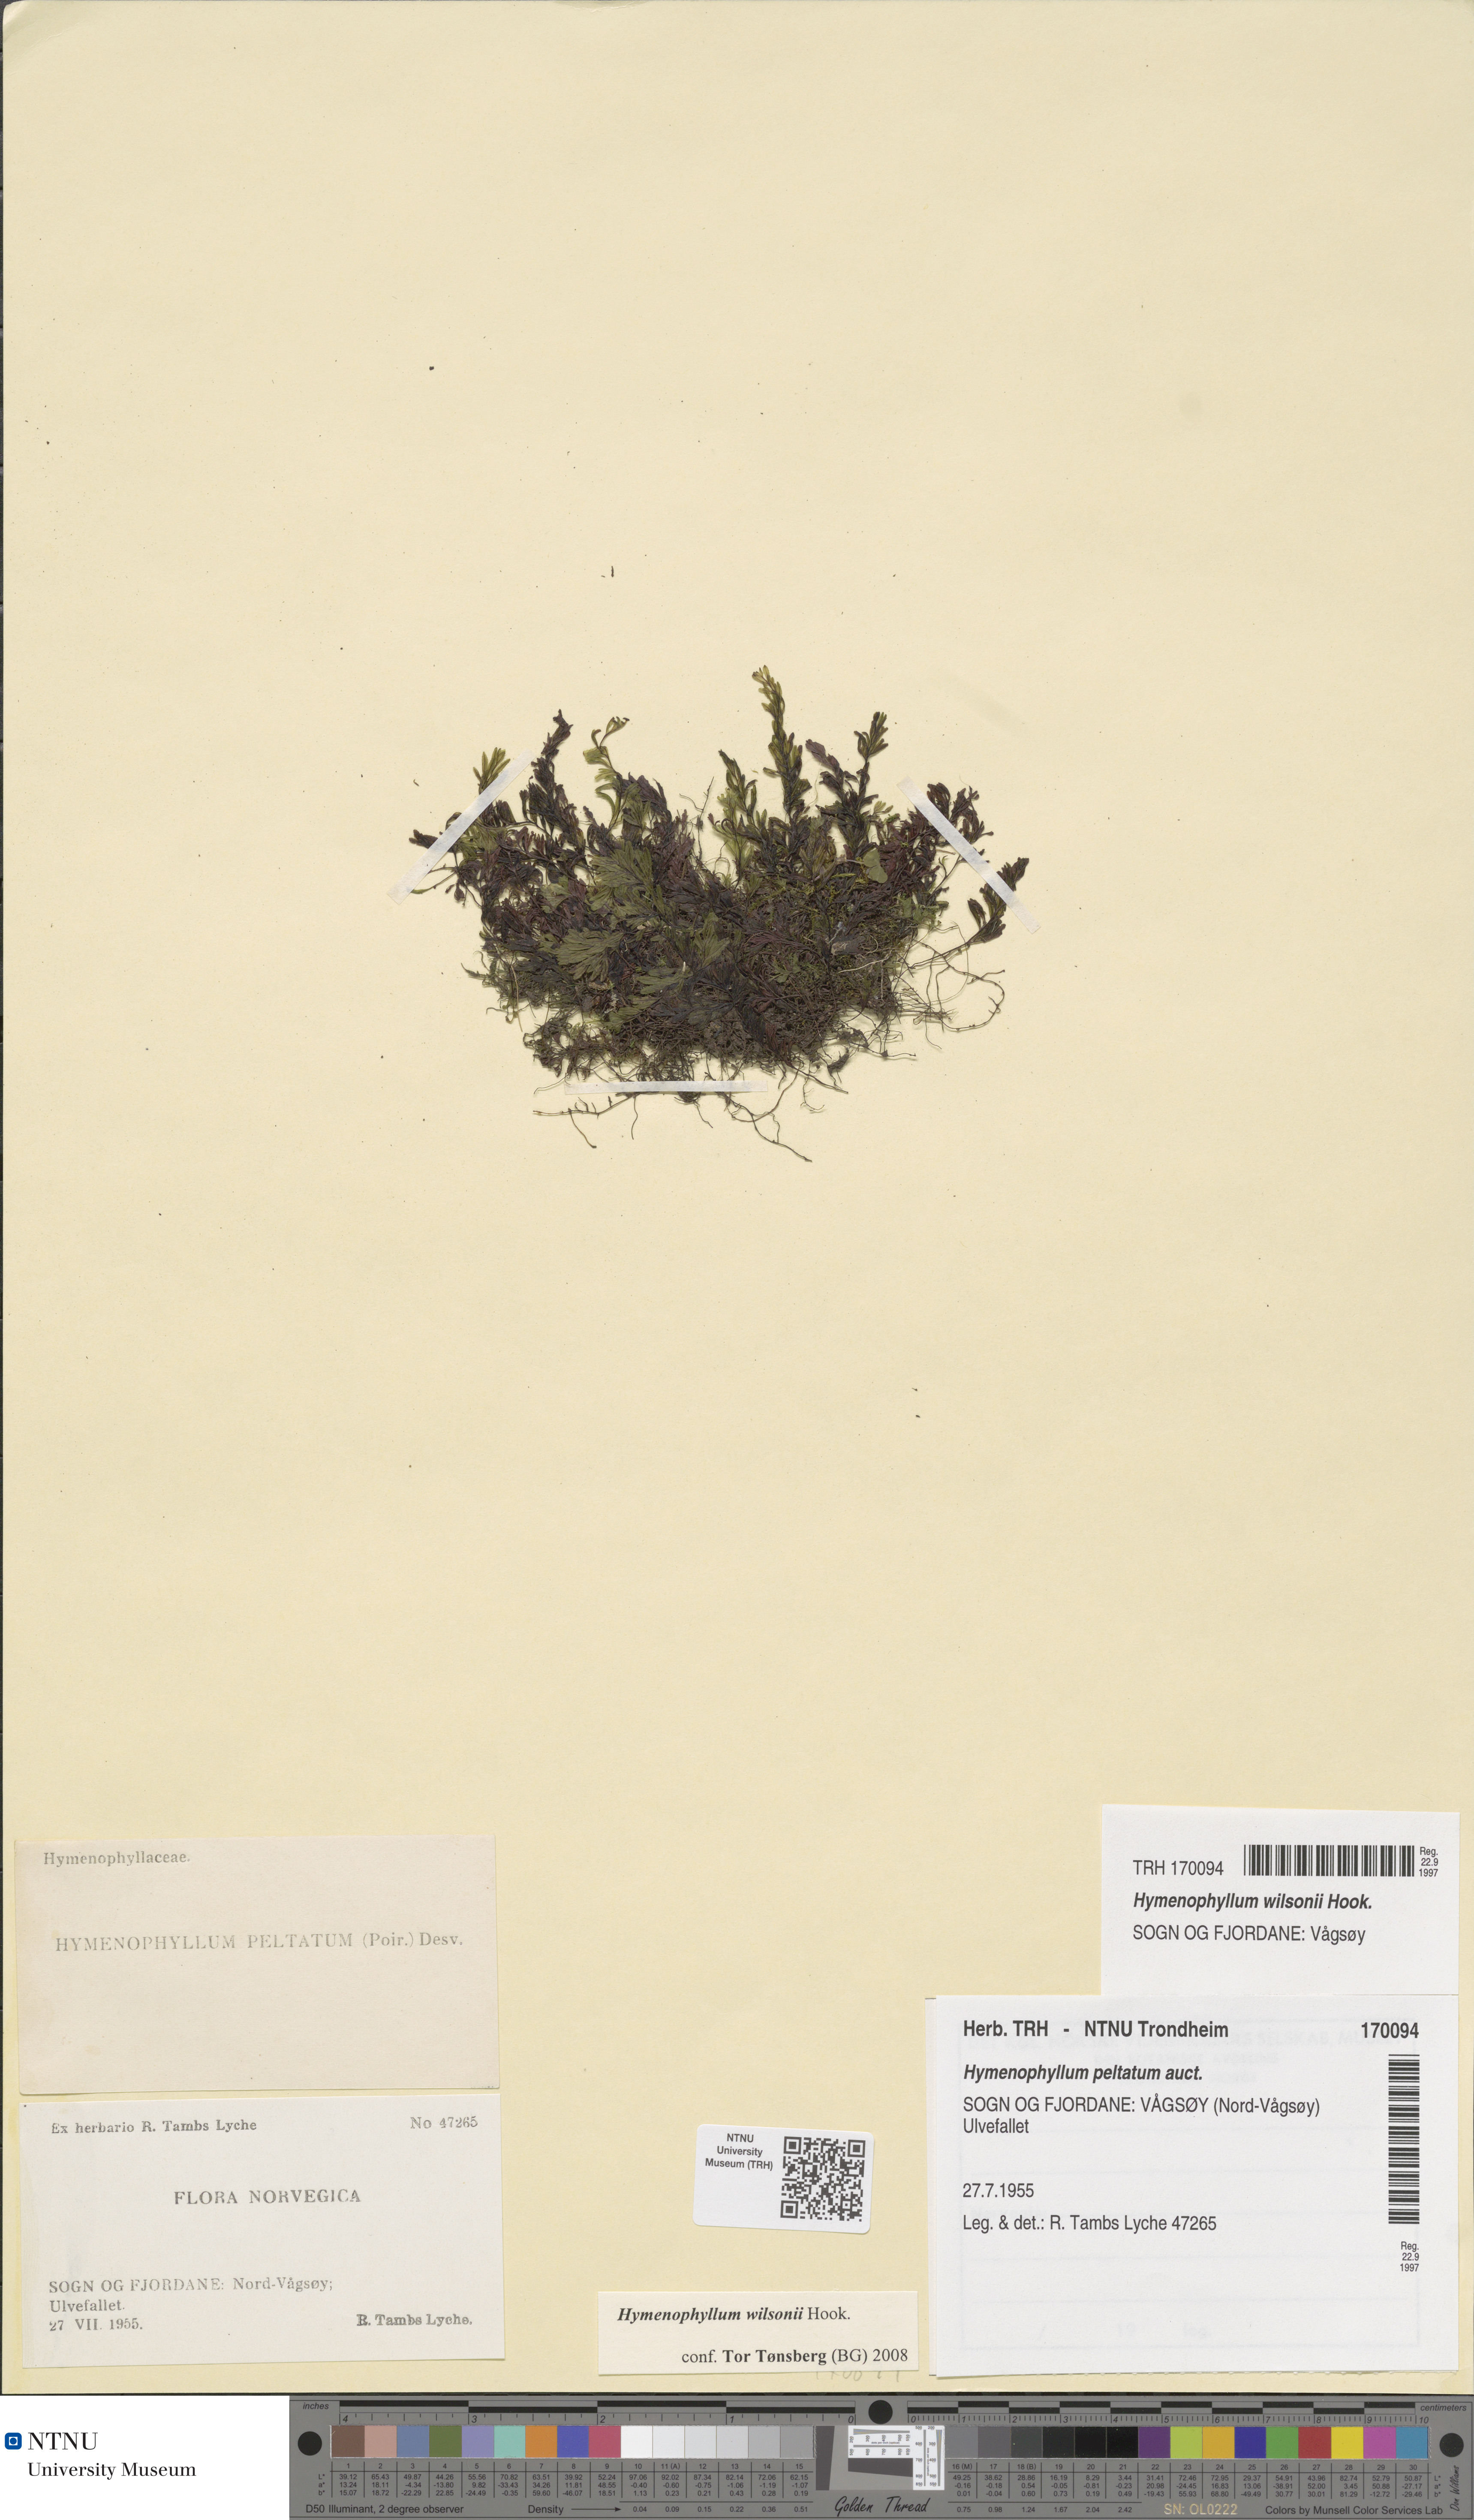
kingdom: Plantae
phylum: Tracheophyta
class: Polypodiopsida
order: Hymenophyllales
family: Hymenophyllaceae
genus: Hymenophyllum
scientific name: Hymenophyllum peltatum
